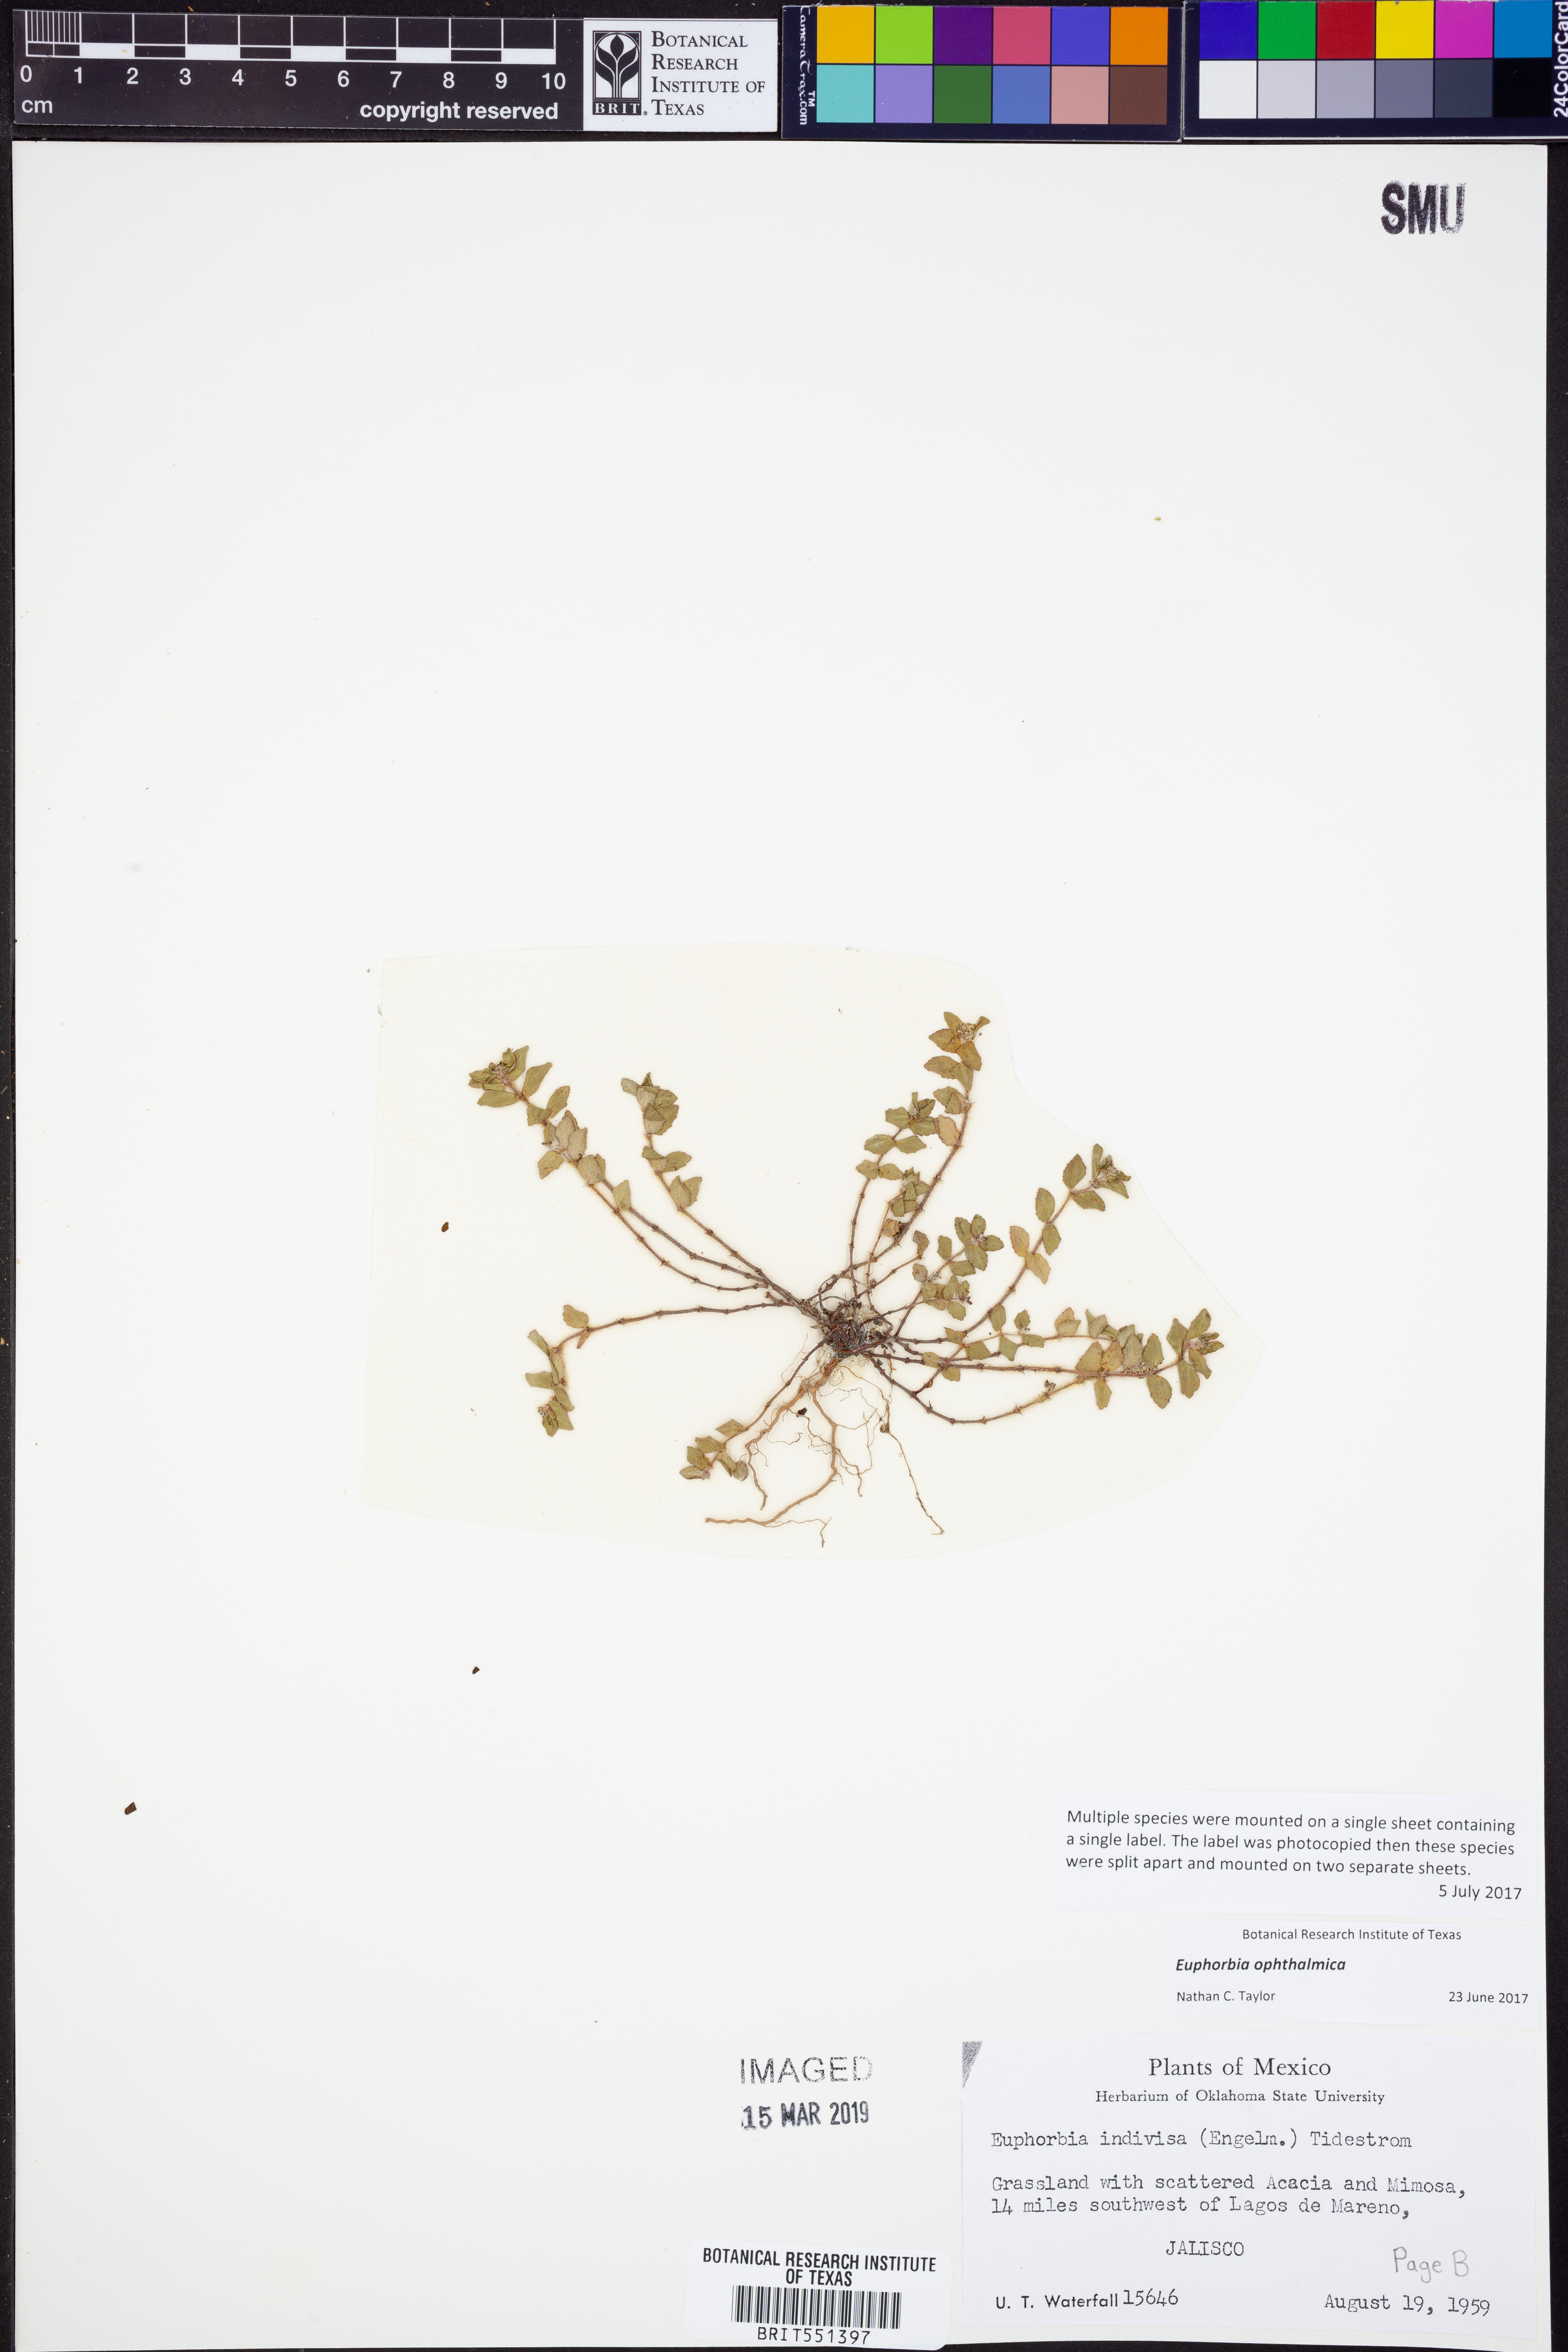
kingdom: Plantae
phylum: Tracheophyta
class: Magnoliopsida
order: Malpighiales
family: Euphorbiaceae
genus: Euphorbia
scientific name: Euphorbia ophthalmica
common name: Florida hammock sandmat
